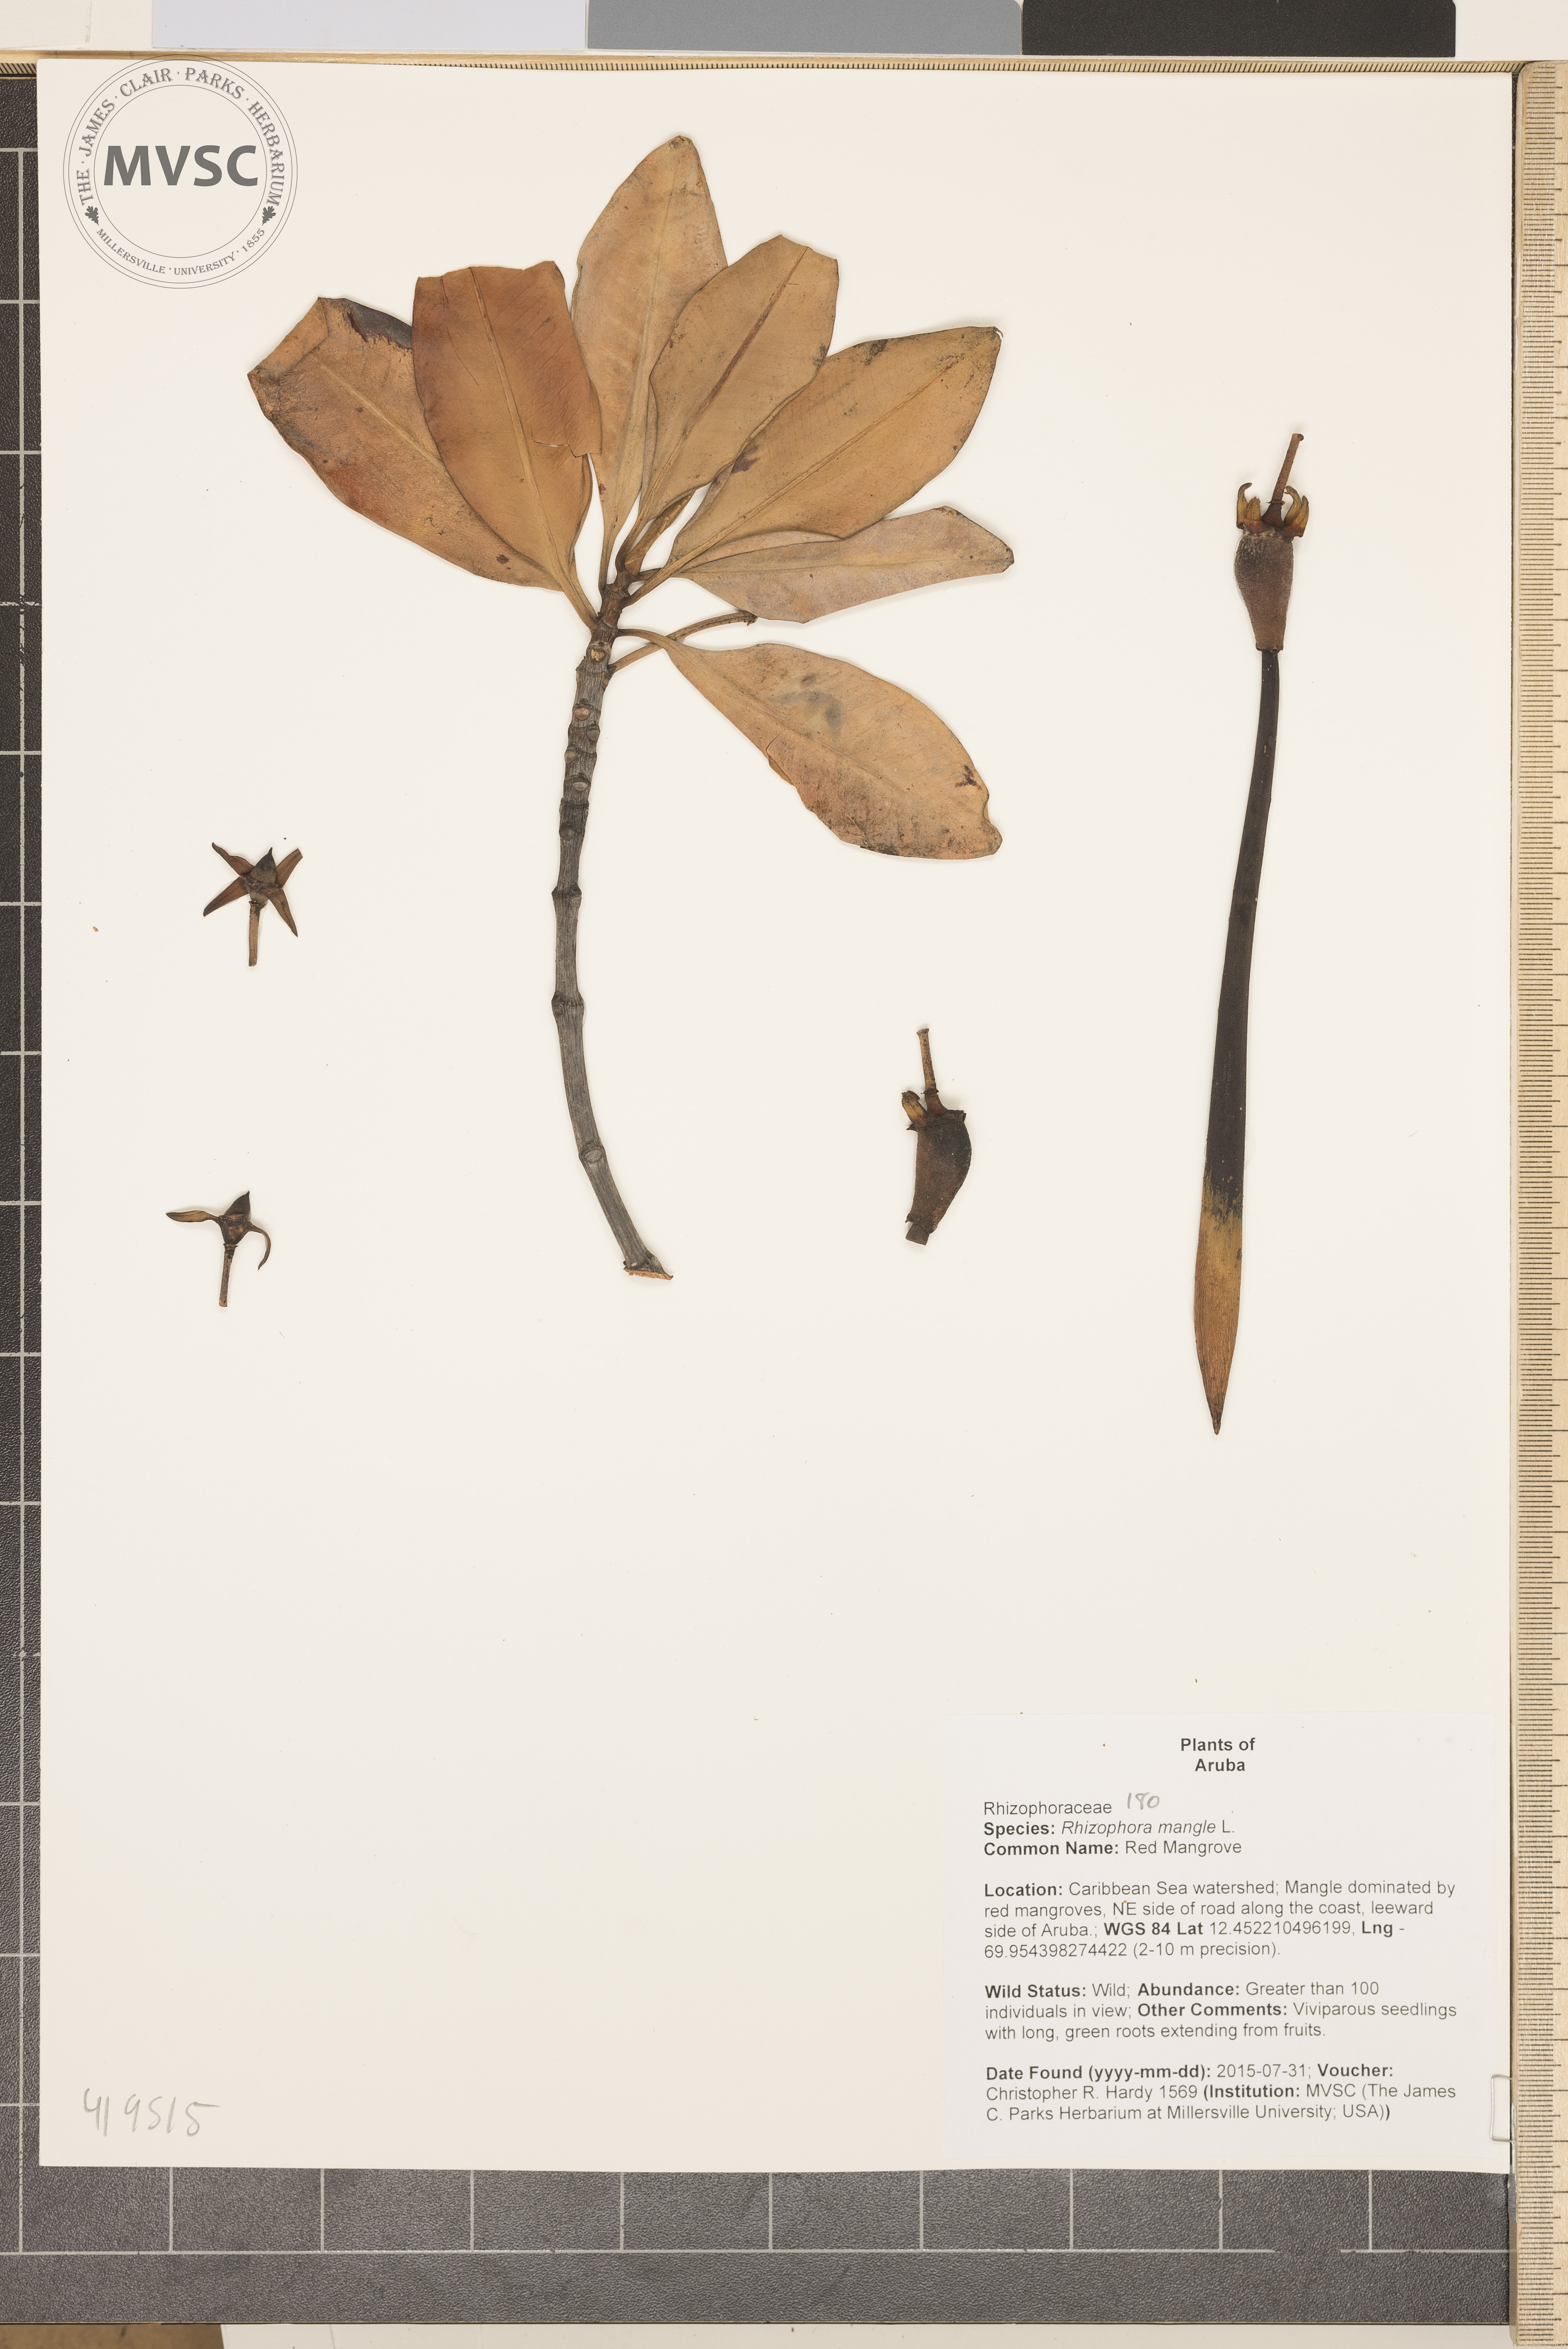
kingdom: Plantae
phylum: Tracheophyta
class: Magnoliopsida
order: Malpighiales
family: Rhizophoraceae
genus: Rhizophora
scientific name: Rhizophora mangle
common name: Red Mangrove
